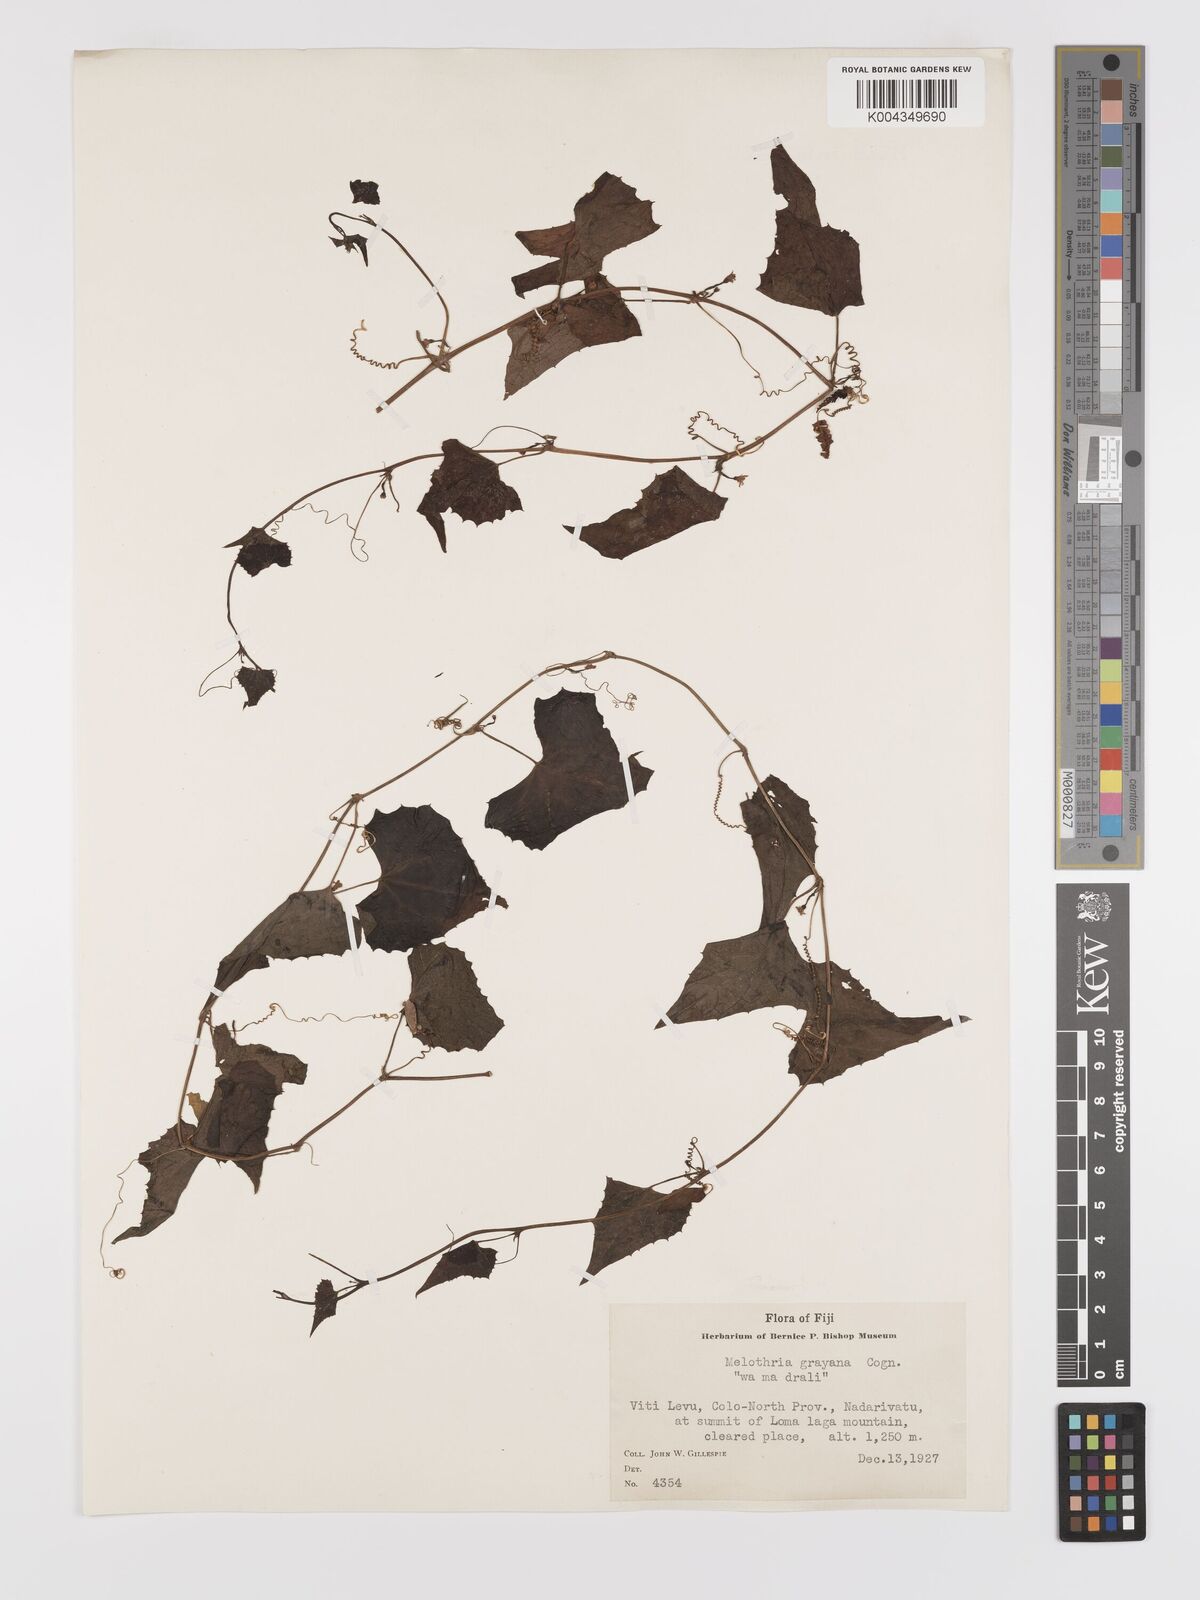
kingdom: Plantae
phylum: Tracheophyta
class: Magnoliopsida
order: Cucurbitales
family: Cucurbitaceae
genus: Zehneria
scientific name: Zehneria mucronata
